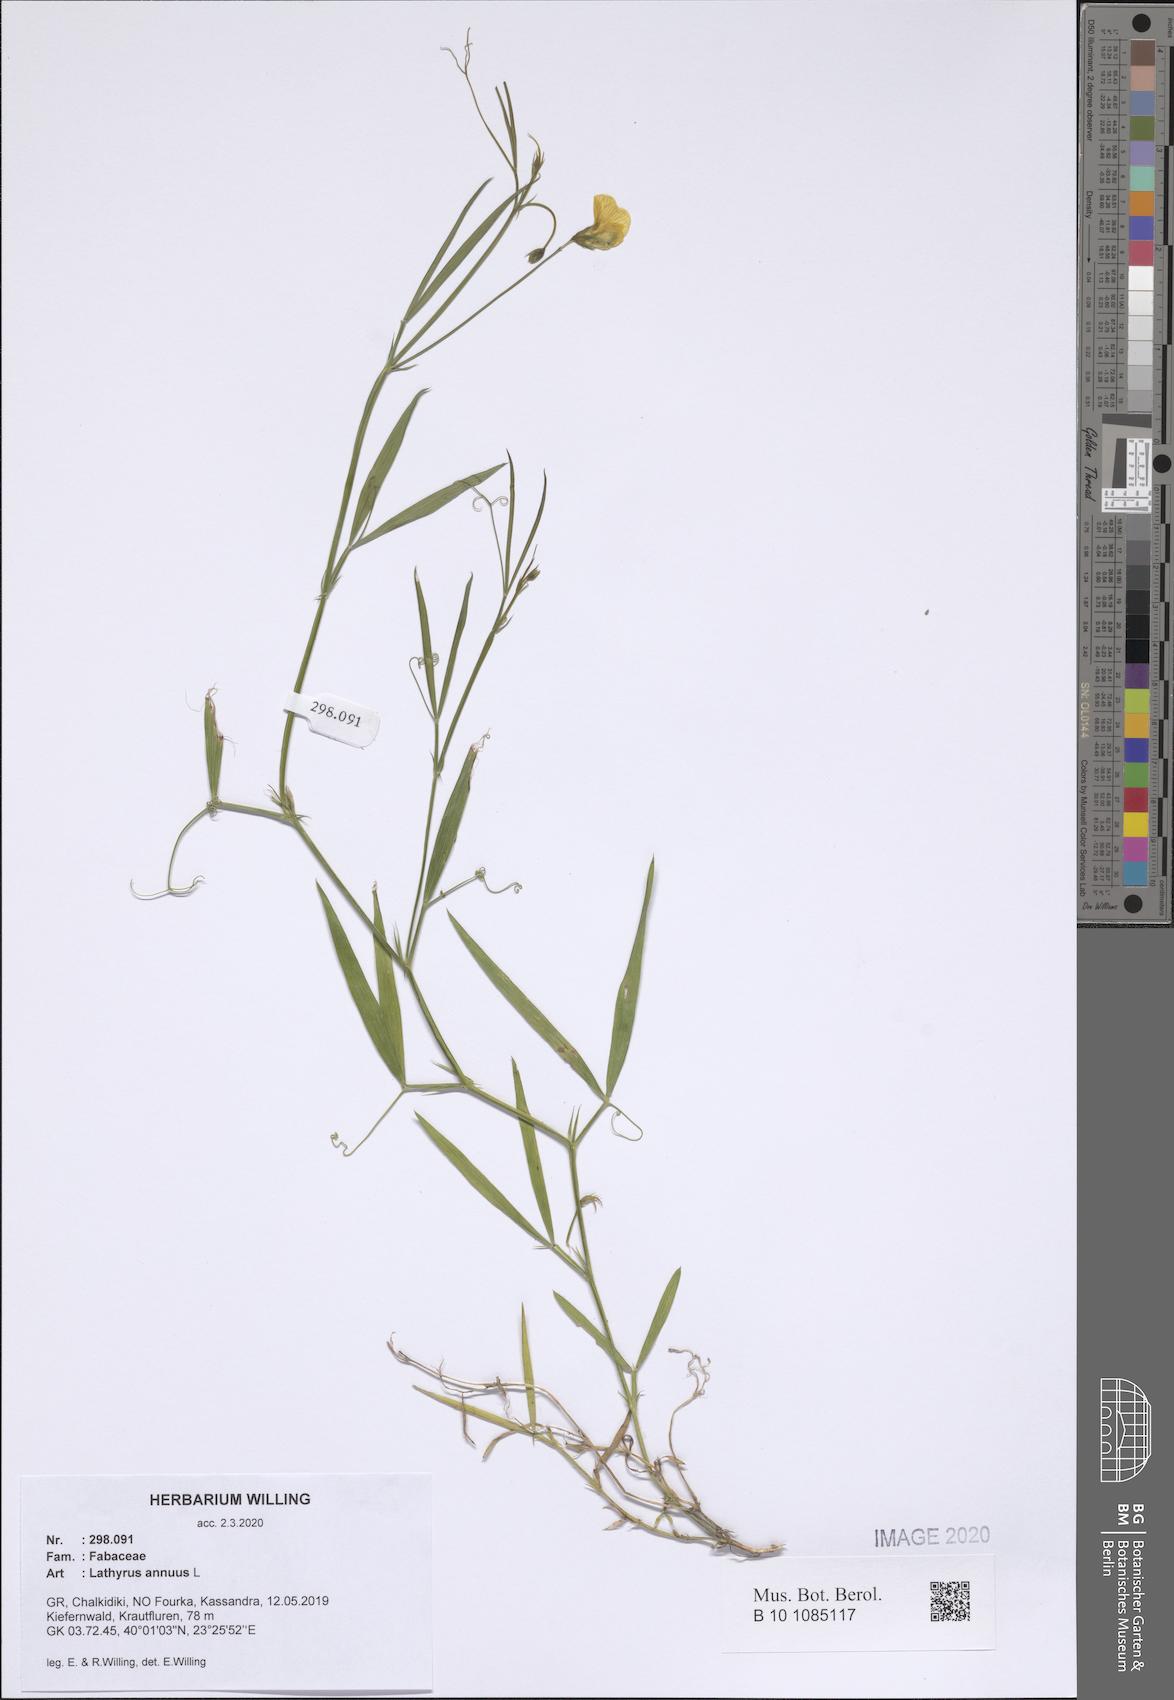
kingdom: Plantae
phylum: Tracheophyta
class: Magnoliopsida
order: Fabales
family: Fabaceae
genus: Lathyrus
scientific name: Lathyrus annuus
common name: Fodder pea
